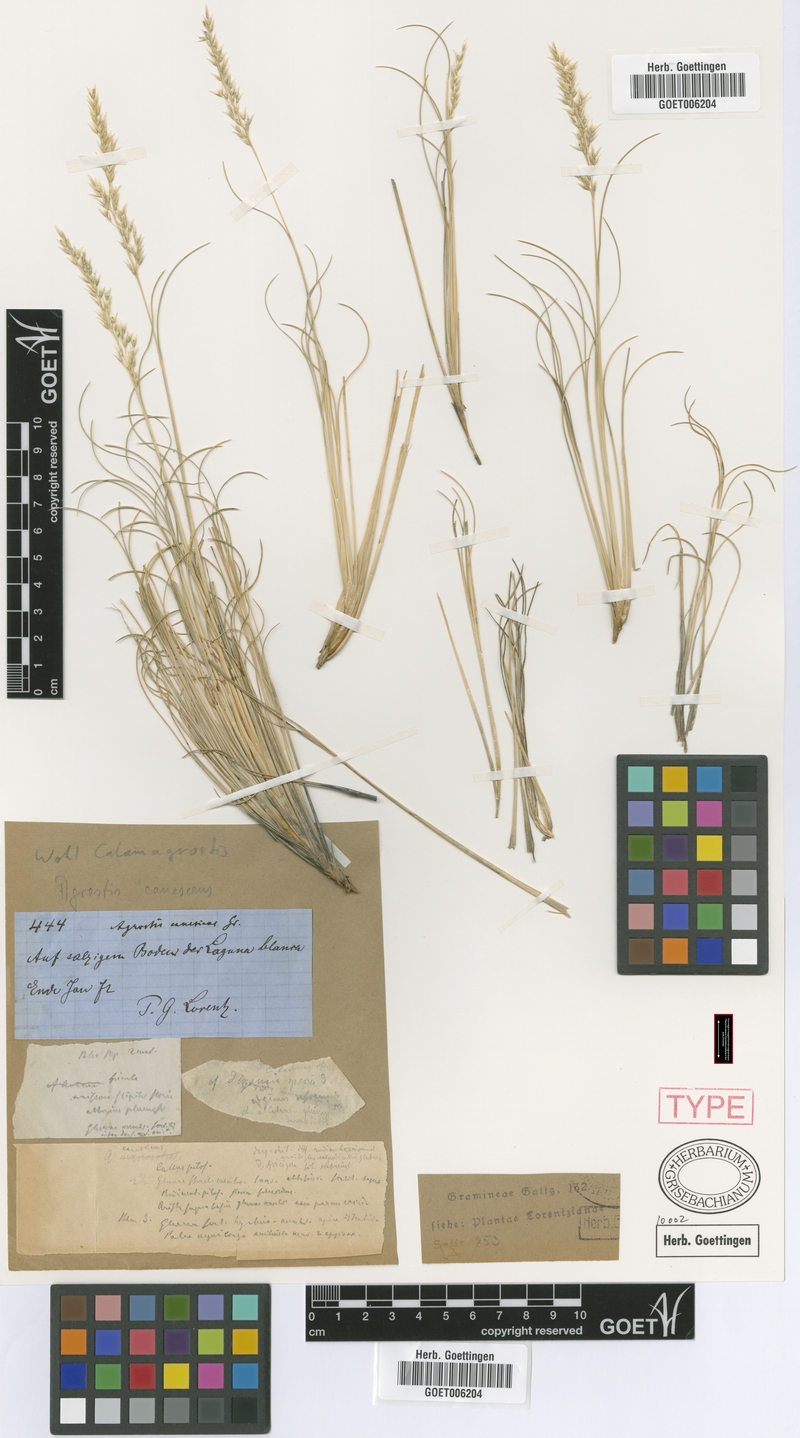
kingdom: Plantae
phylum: Tracheophyta
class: Liliopsida
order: Poales
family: Poaceae
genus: Cinnagrostis
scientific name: Cinnagrostis velutina
